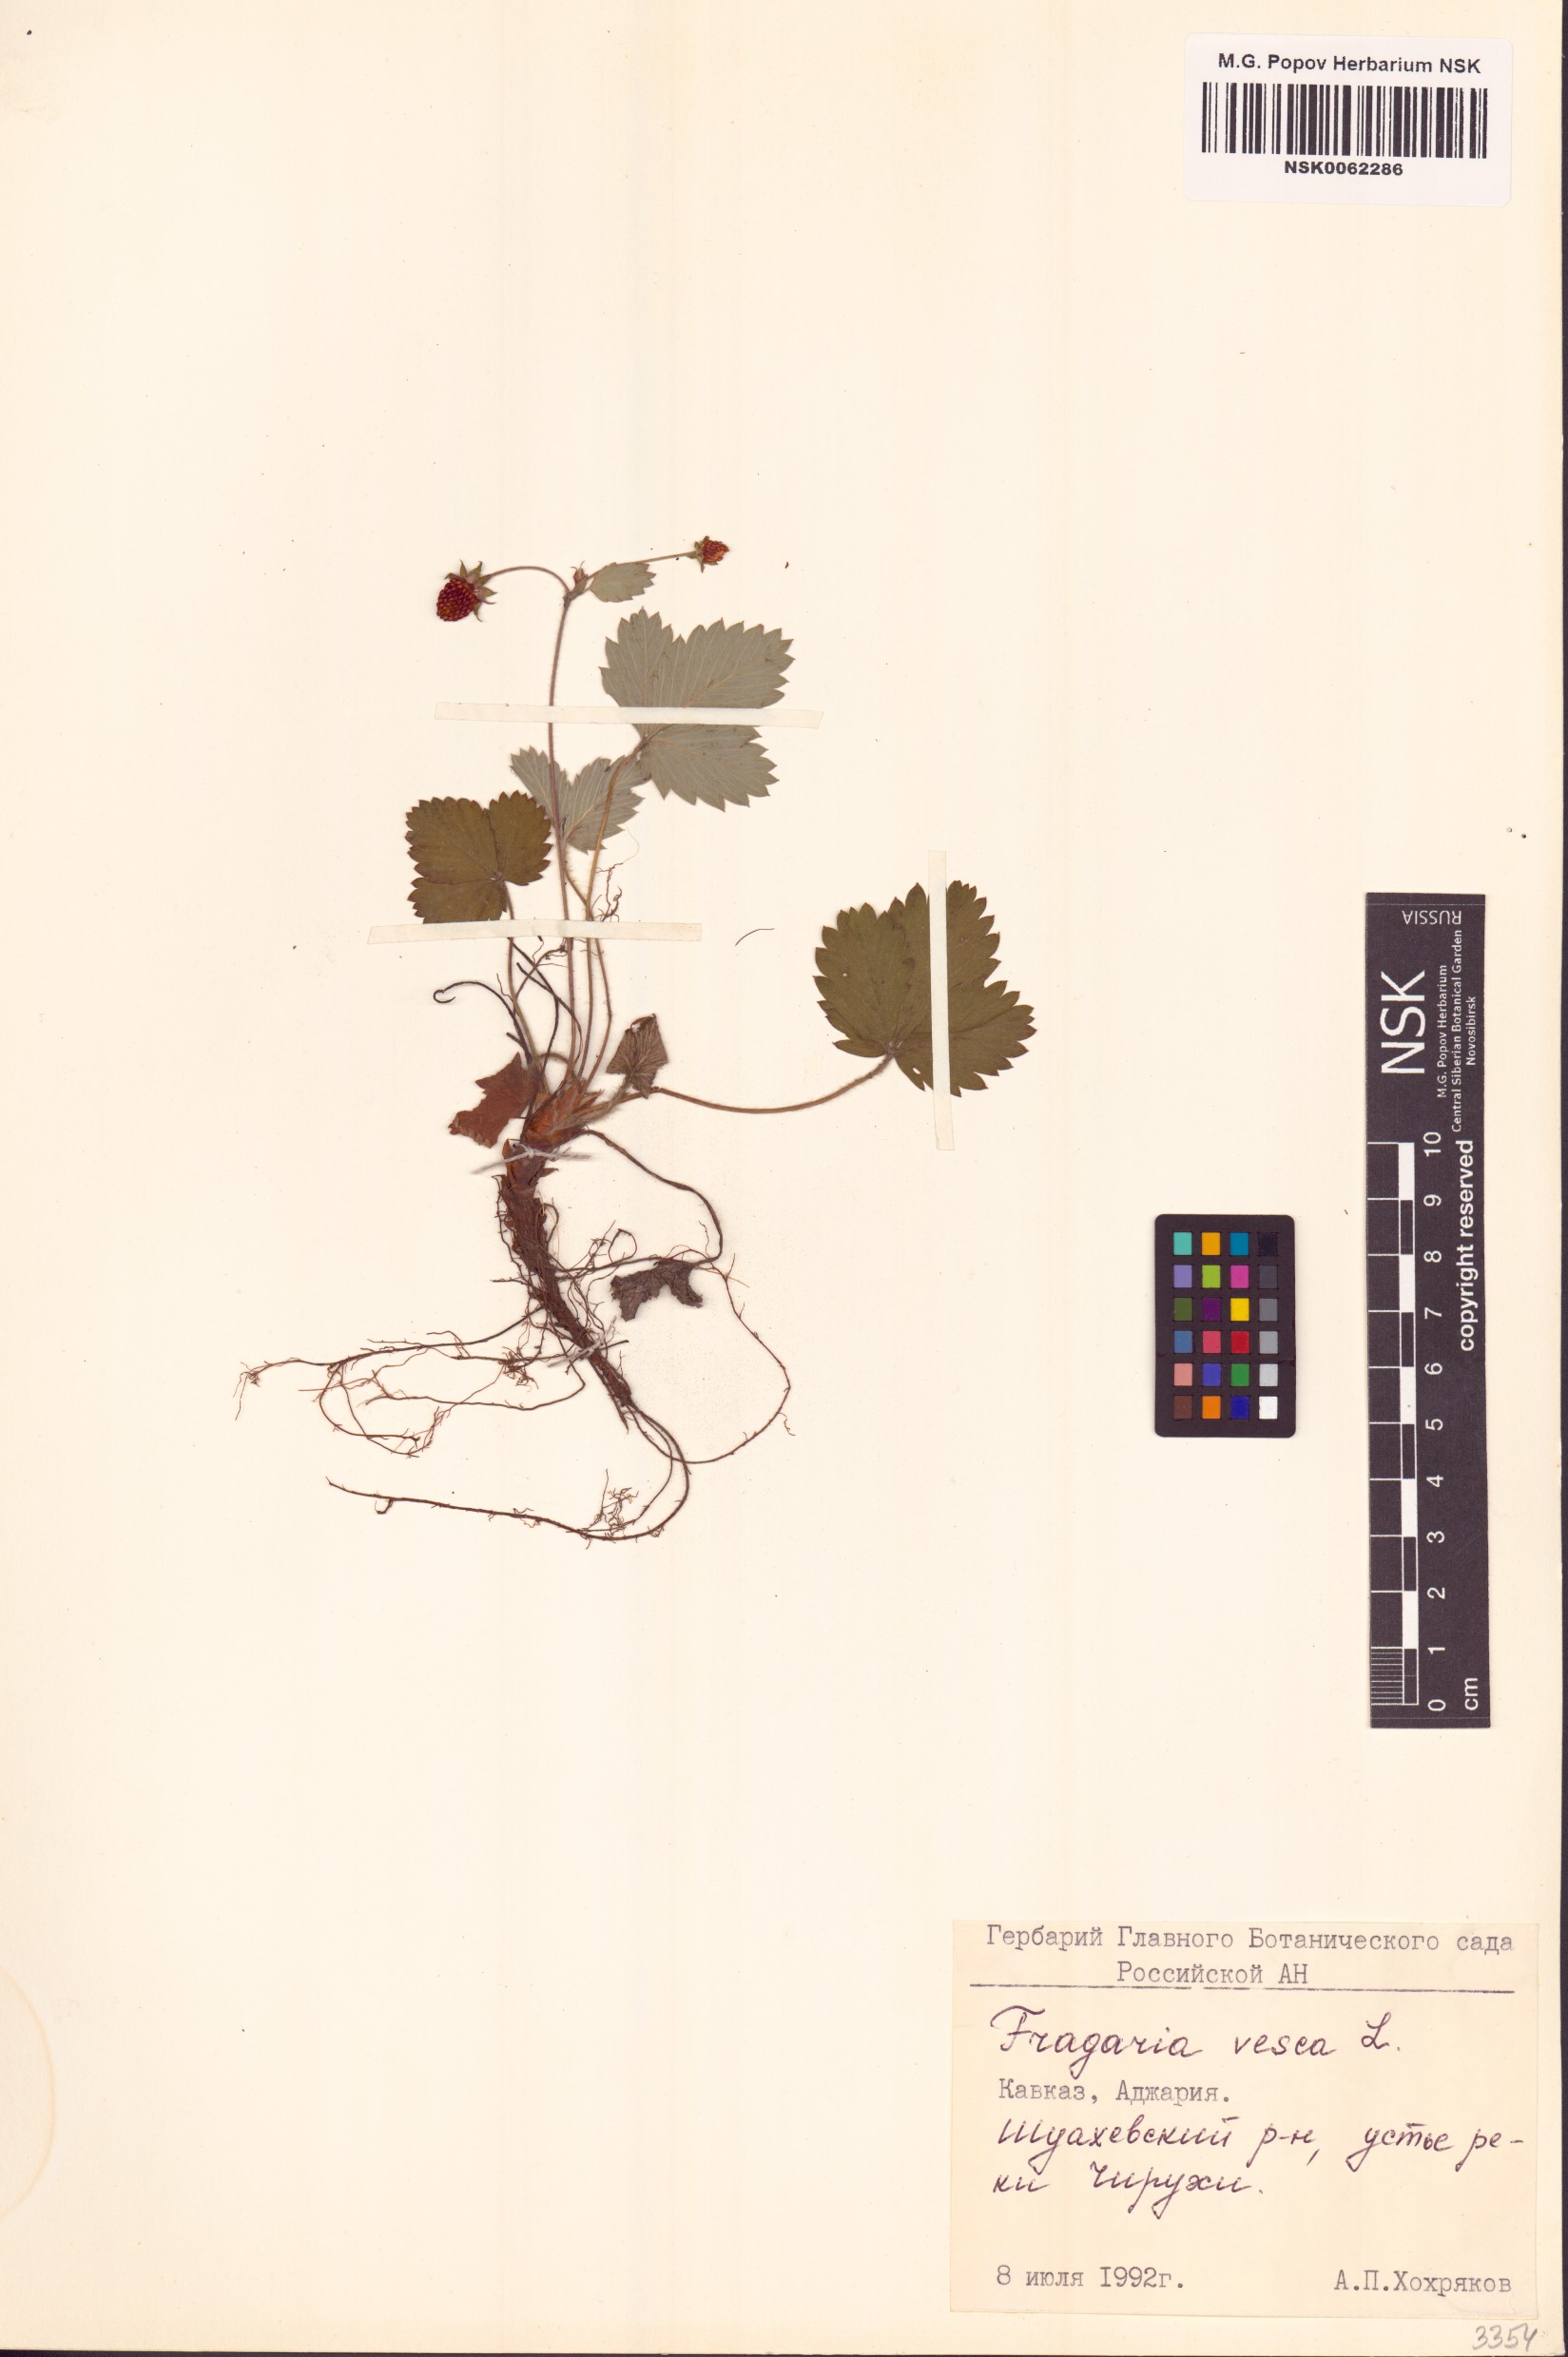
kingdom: Plantae
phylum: Tracheophyta
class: Magnoliopsida
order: Rosales
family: Rosaceae
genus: Fragaria
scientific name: Fragaria vesca
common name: Wild strawberry
